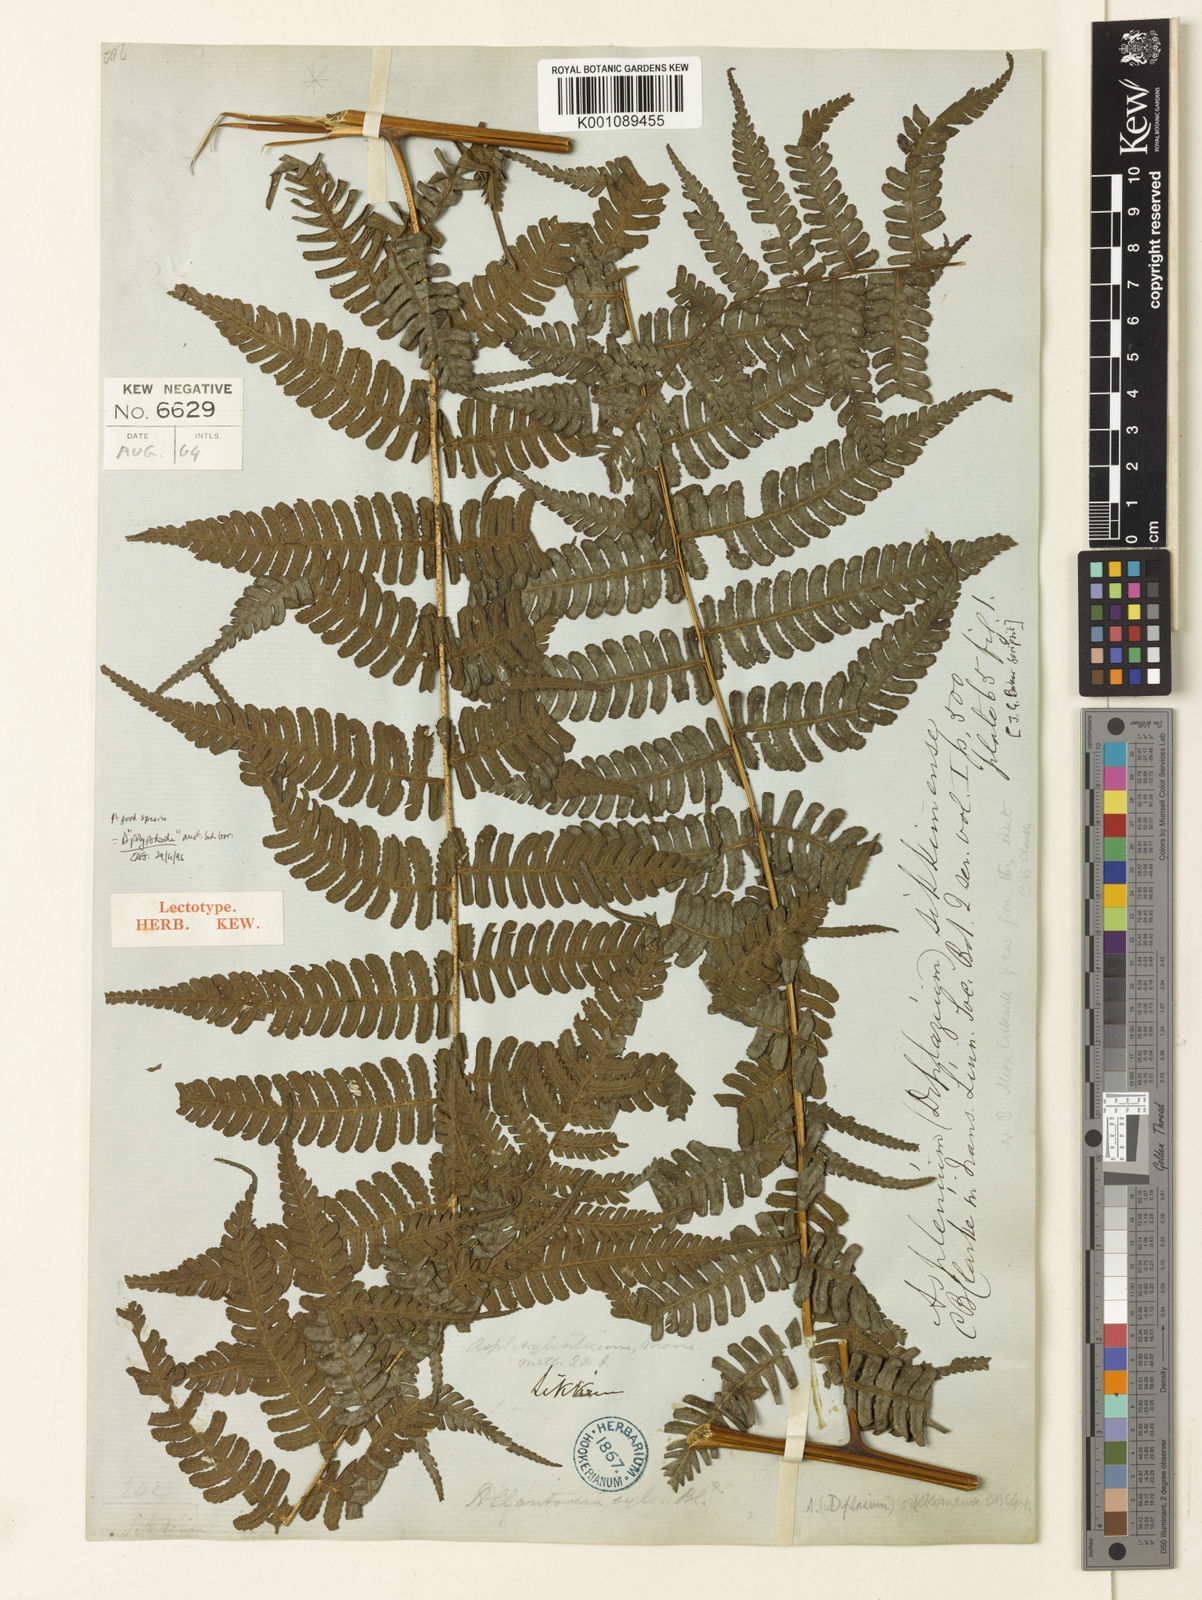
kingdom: Plantae
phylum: Tracheophyta
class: Polypodiopsida
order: Polypodiales
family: Athyriaceae
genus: Diplazium
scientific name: Diplazium sikkimense
